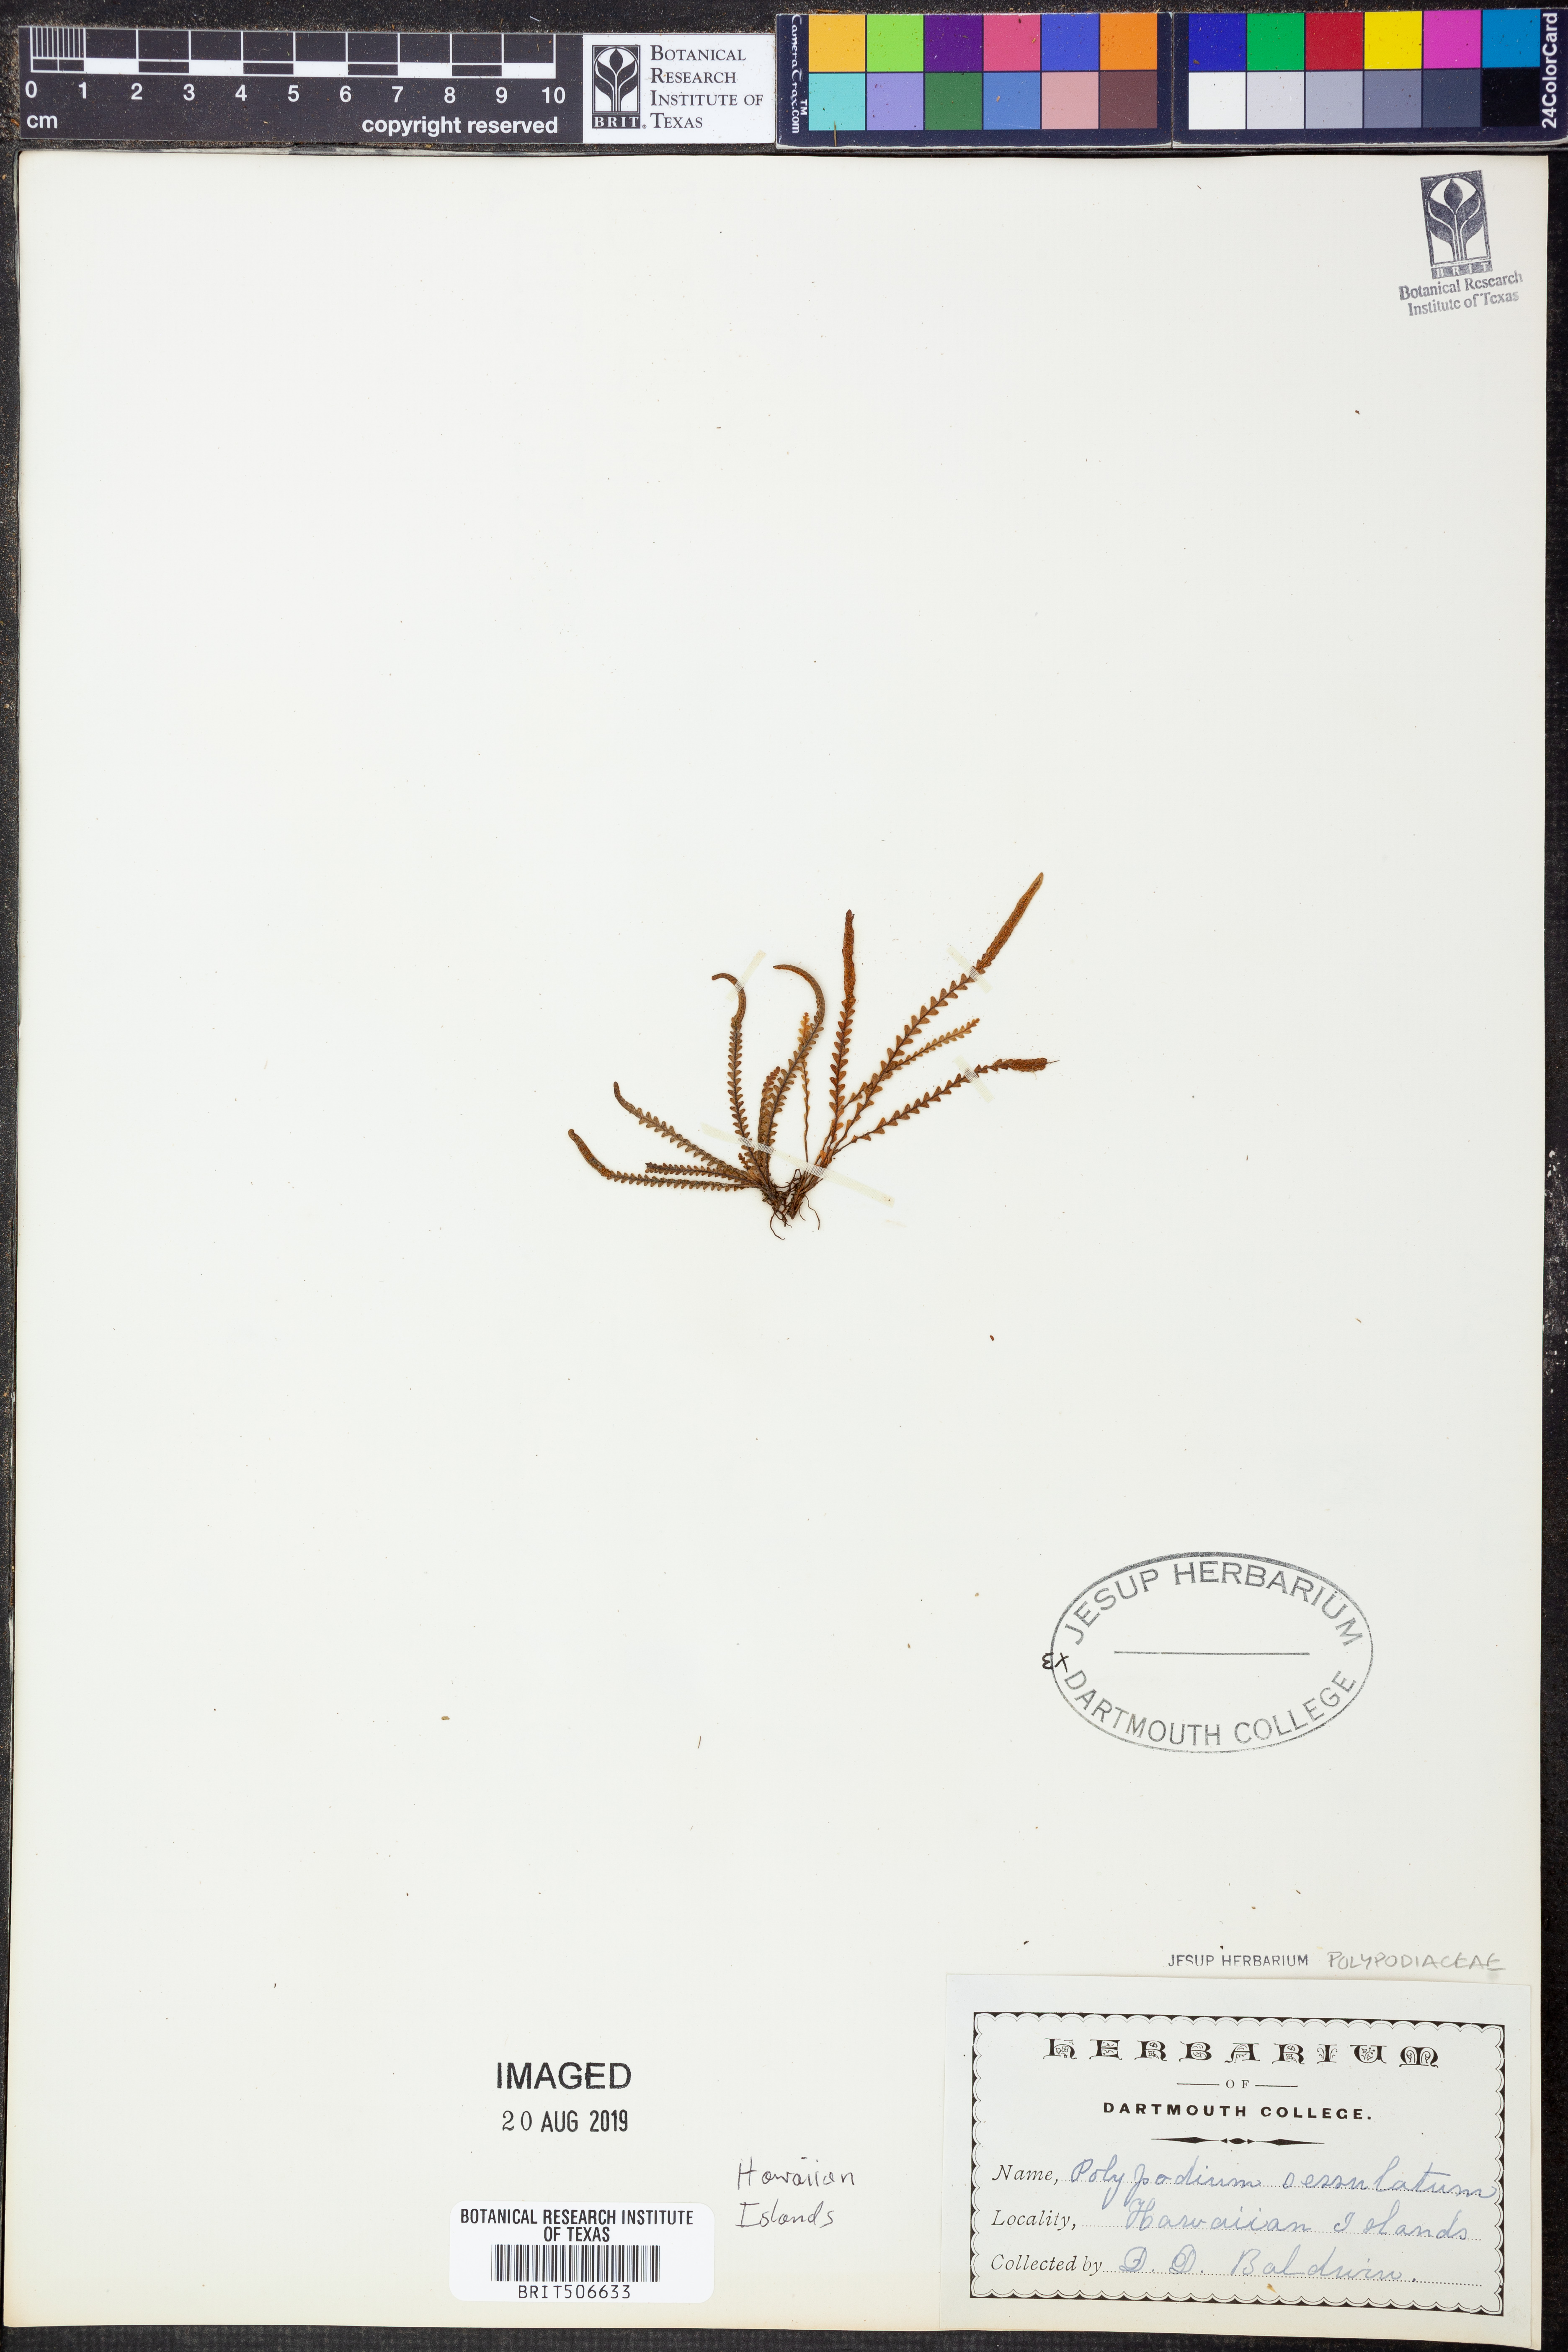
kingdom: Plantae
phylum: Tracheophyta
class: Polypodiopsida
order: Polypodiales
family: Polypodiaceae
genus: Cochlidium
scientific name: Cochlidium serrulatum
